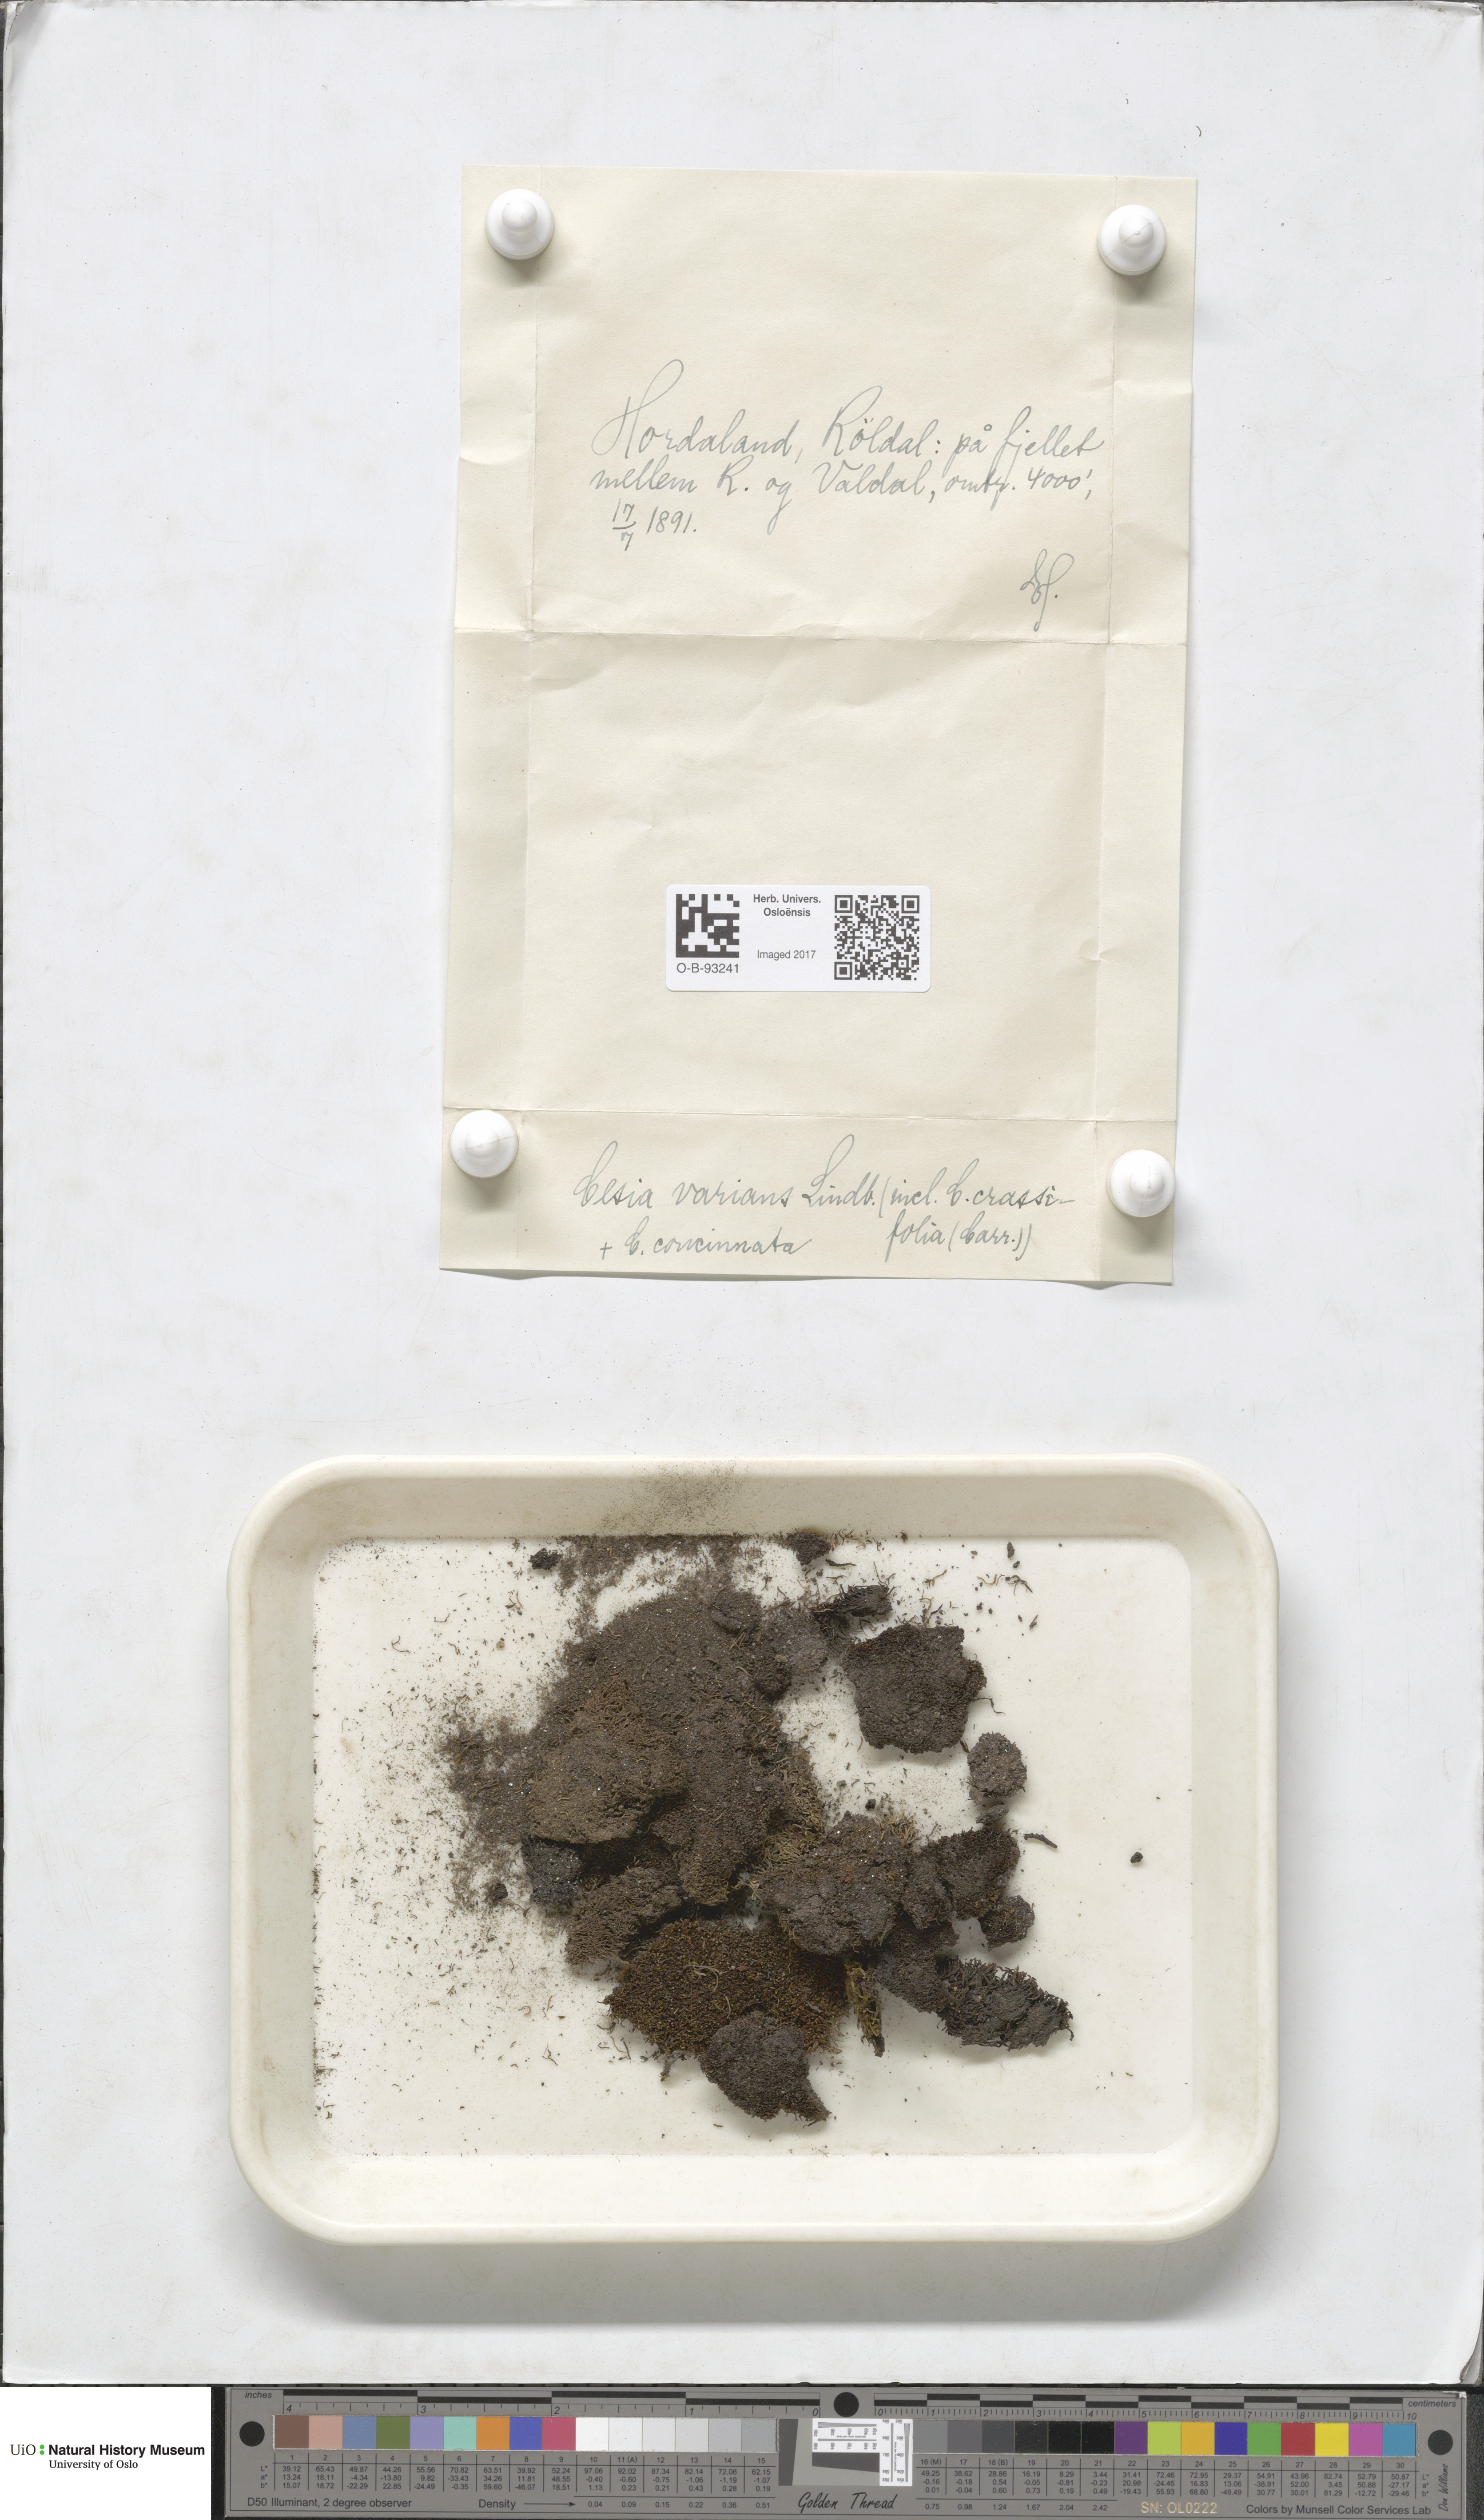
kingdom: Plantae
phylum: Marchantiophyta
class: Jungermanniopsida
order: Jungermanniales
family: Gymnomitriaceae
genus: Gymnomitrion
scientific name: Gymnomitrion brevissimum
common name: Snow rustwort
